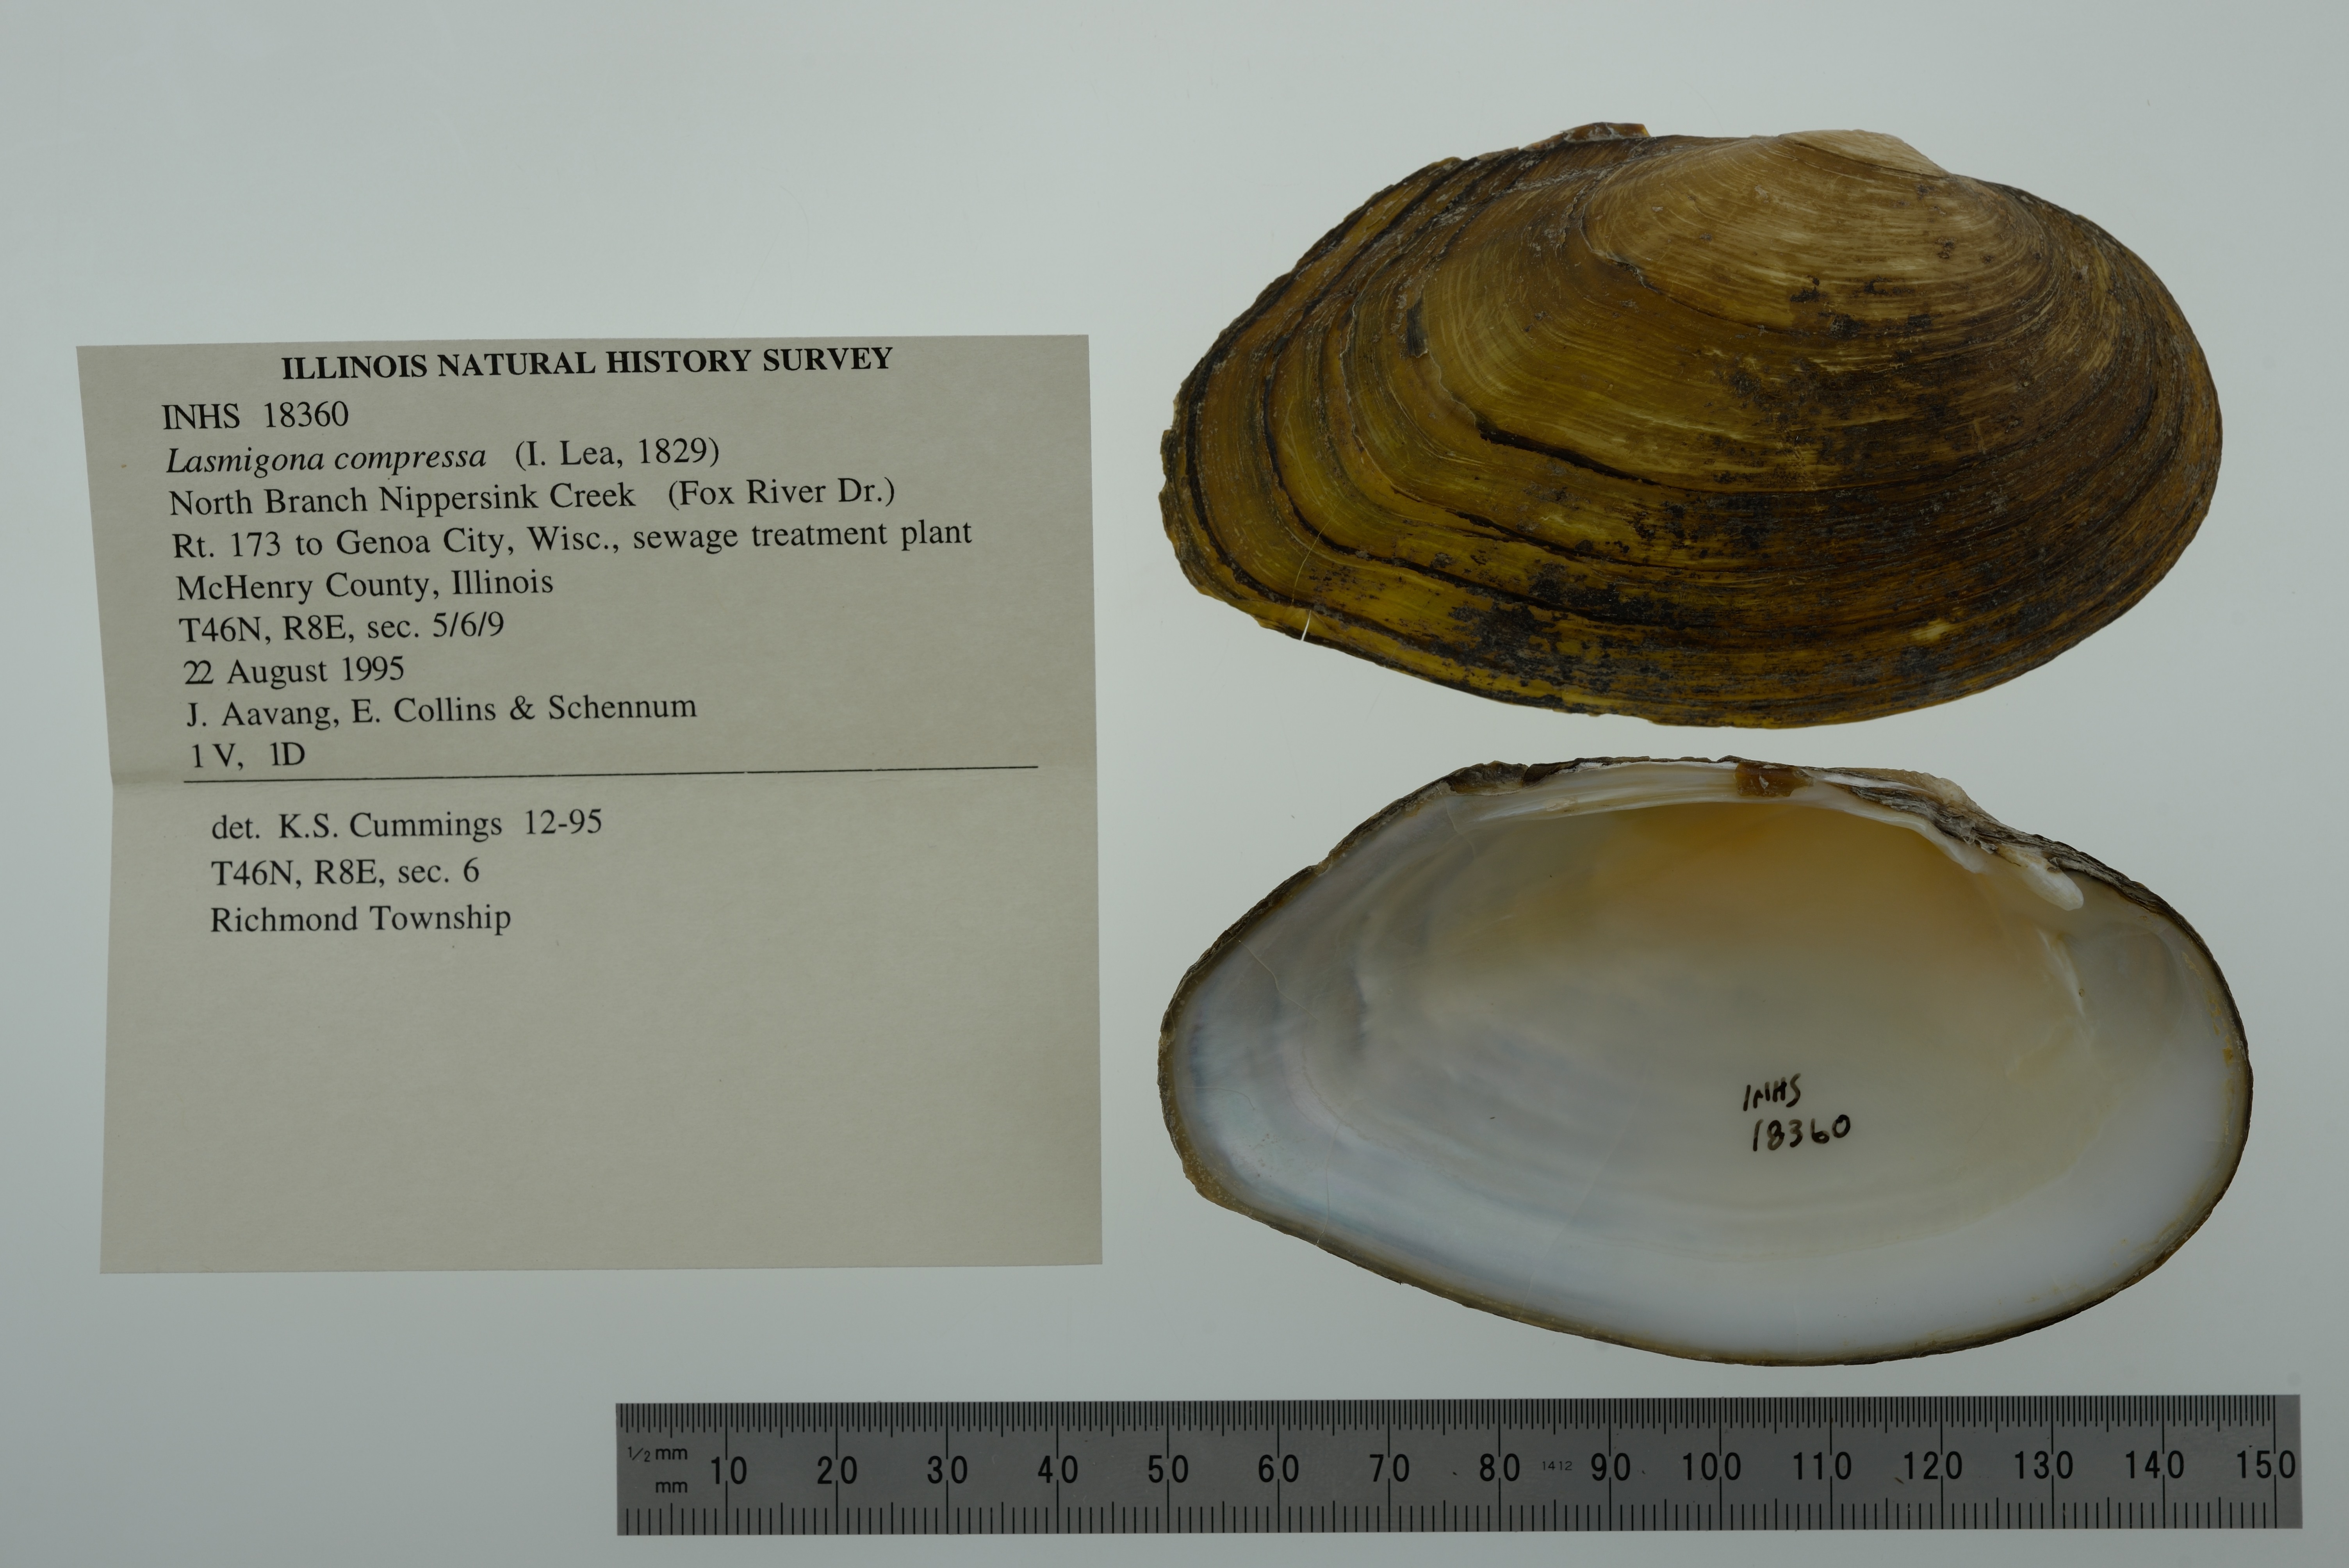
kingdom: Animalia
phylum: Mollusca
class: Bivalvia
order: Unionida
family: Unionidae
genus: Lasmigona
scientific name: Lasmigona compressa
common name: Creek heelsplitter
